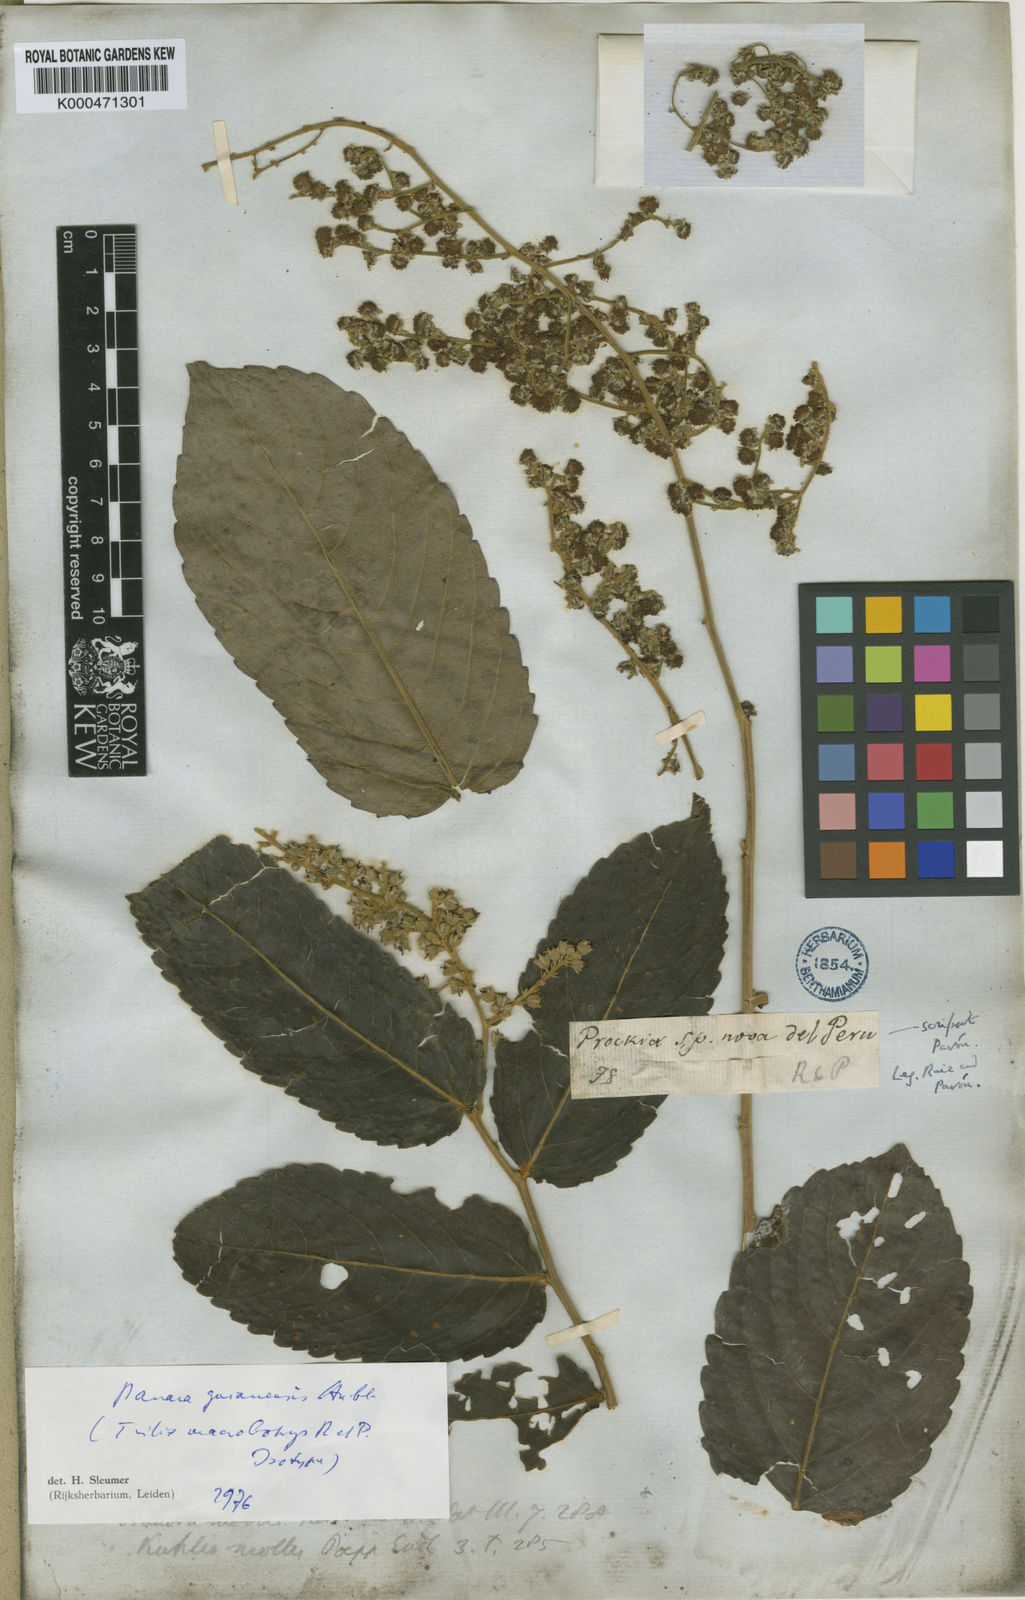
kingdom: Plantae
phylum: Tracheophyta
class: Magnoliopsida
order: Malpighiales
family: Salicaceae
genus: Banara
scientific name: Banara guianensis
